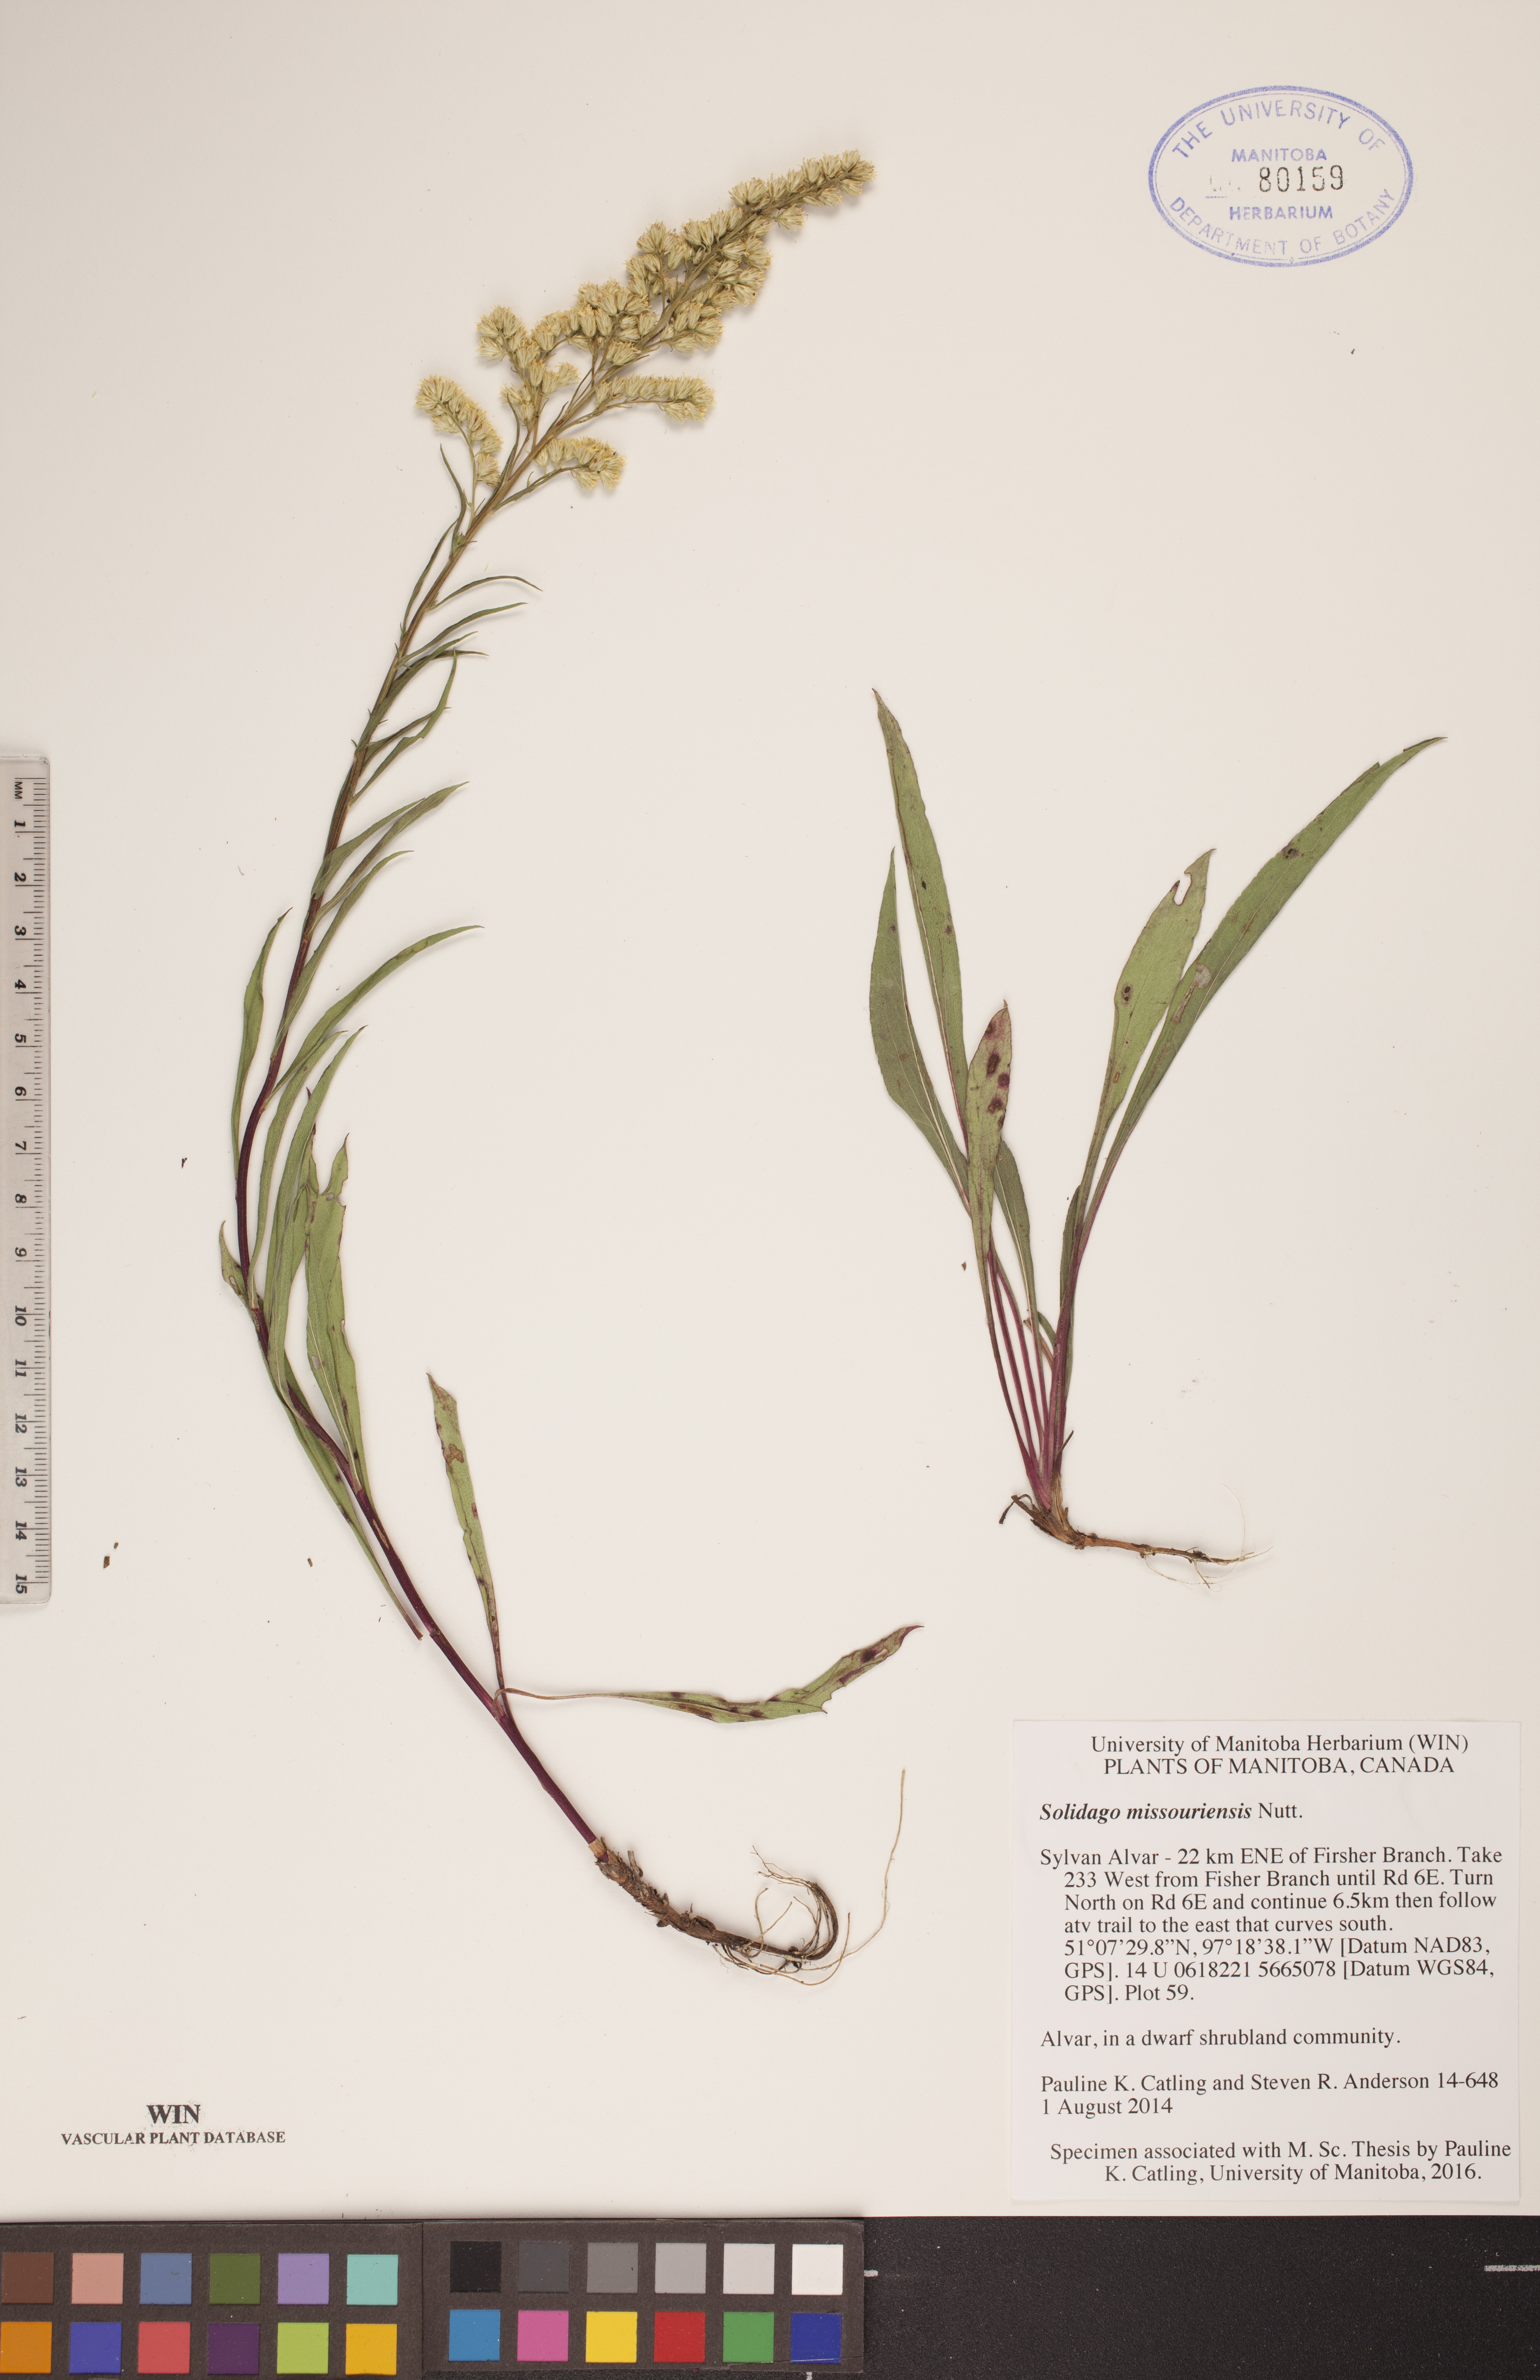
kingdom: Plantae
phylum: Tracheophyta
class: Magnoliopsida
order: Asterales
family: Asteraceae
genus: Solidago
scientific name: Solidago missouriensis
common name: Prairie goldenrod
